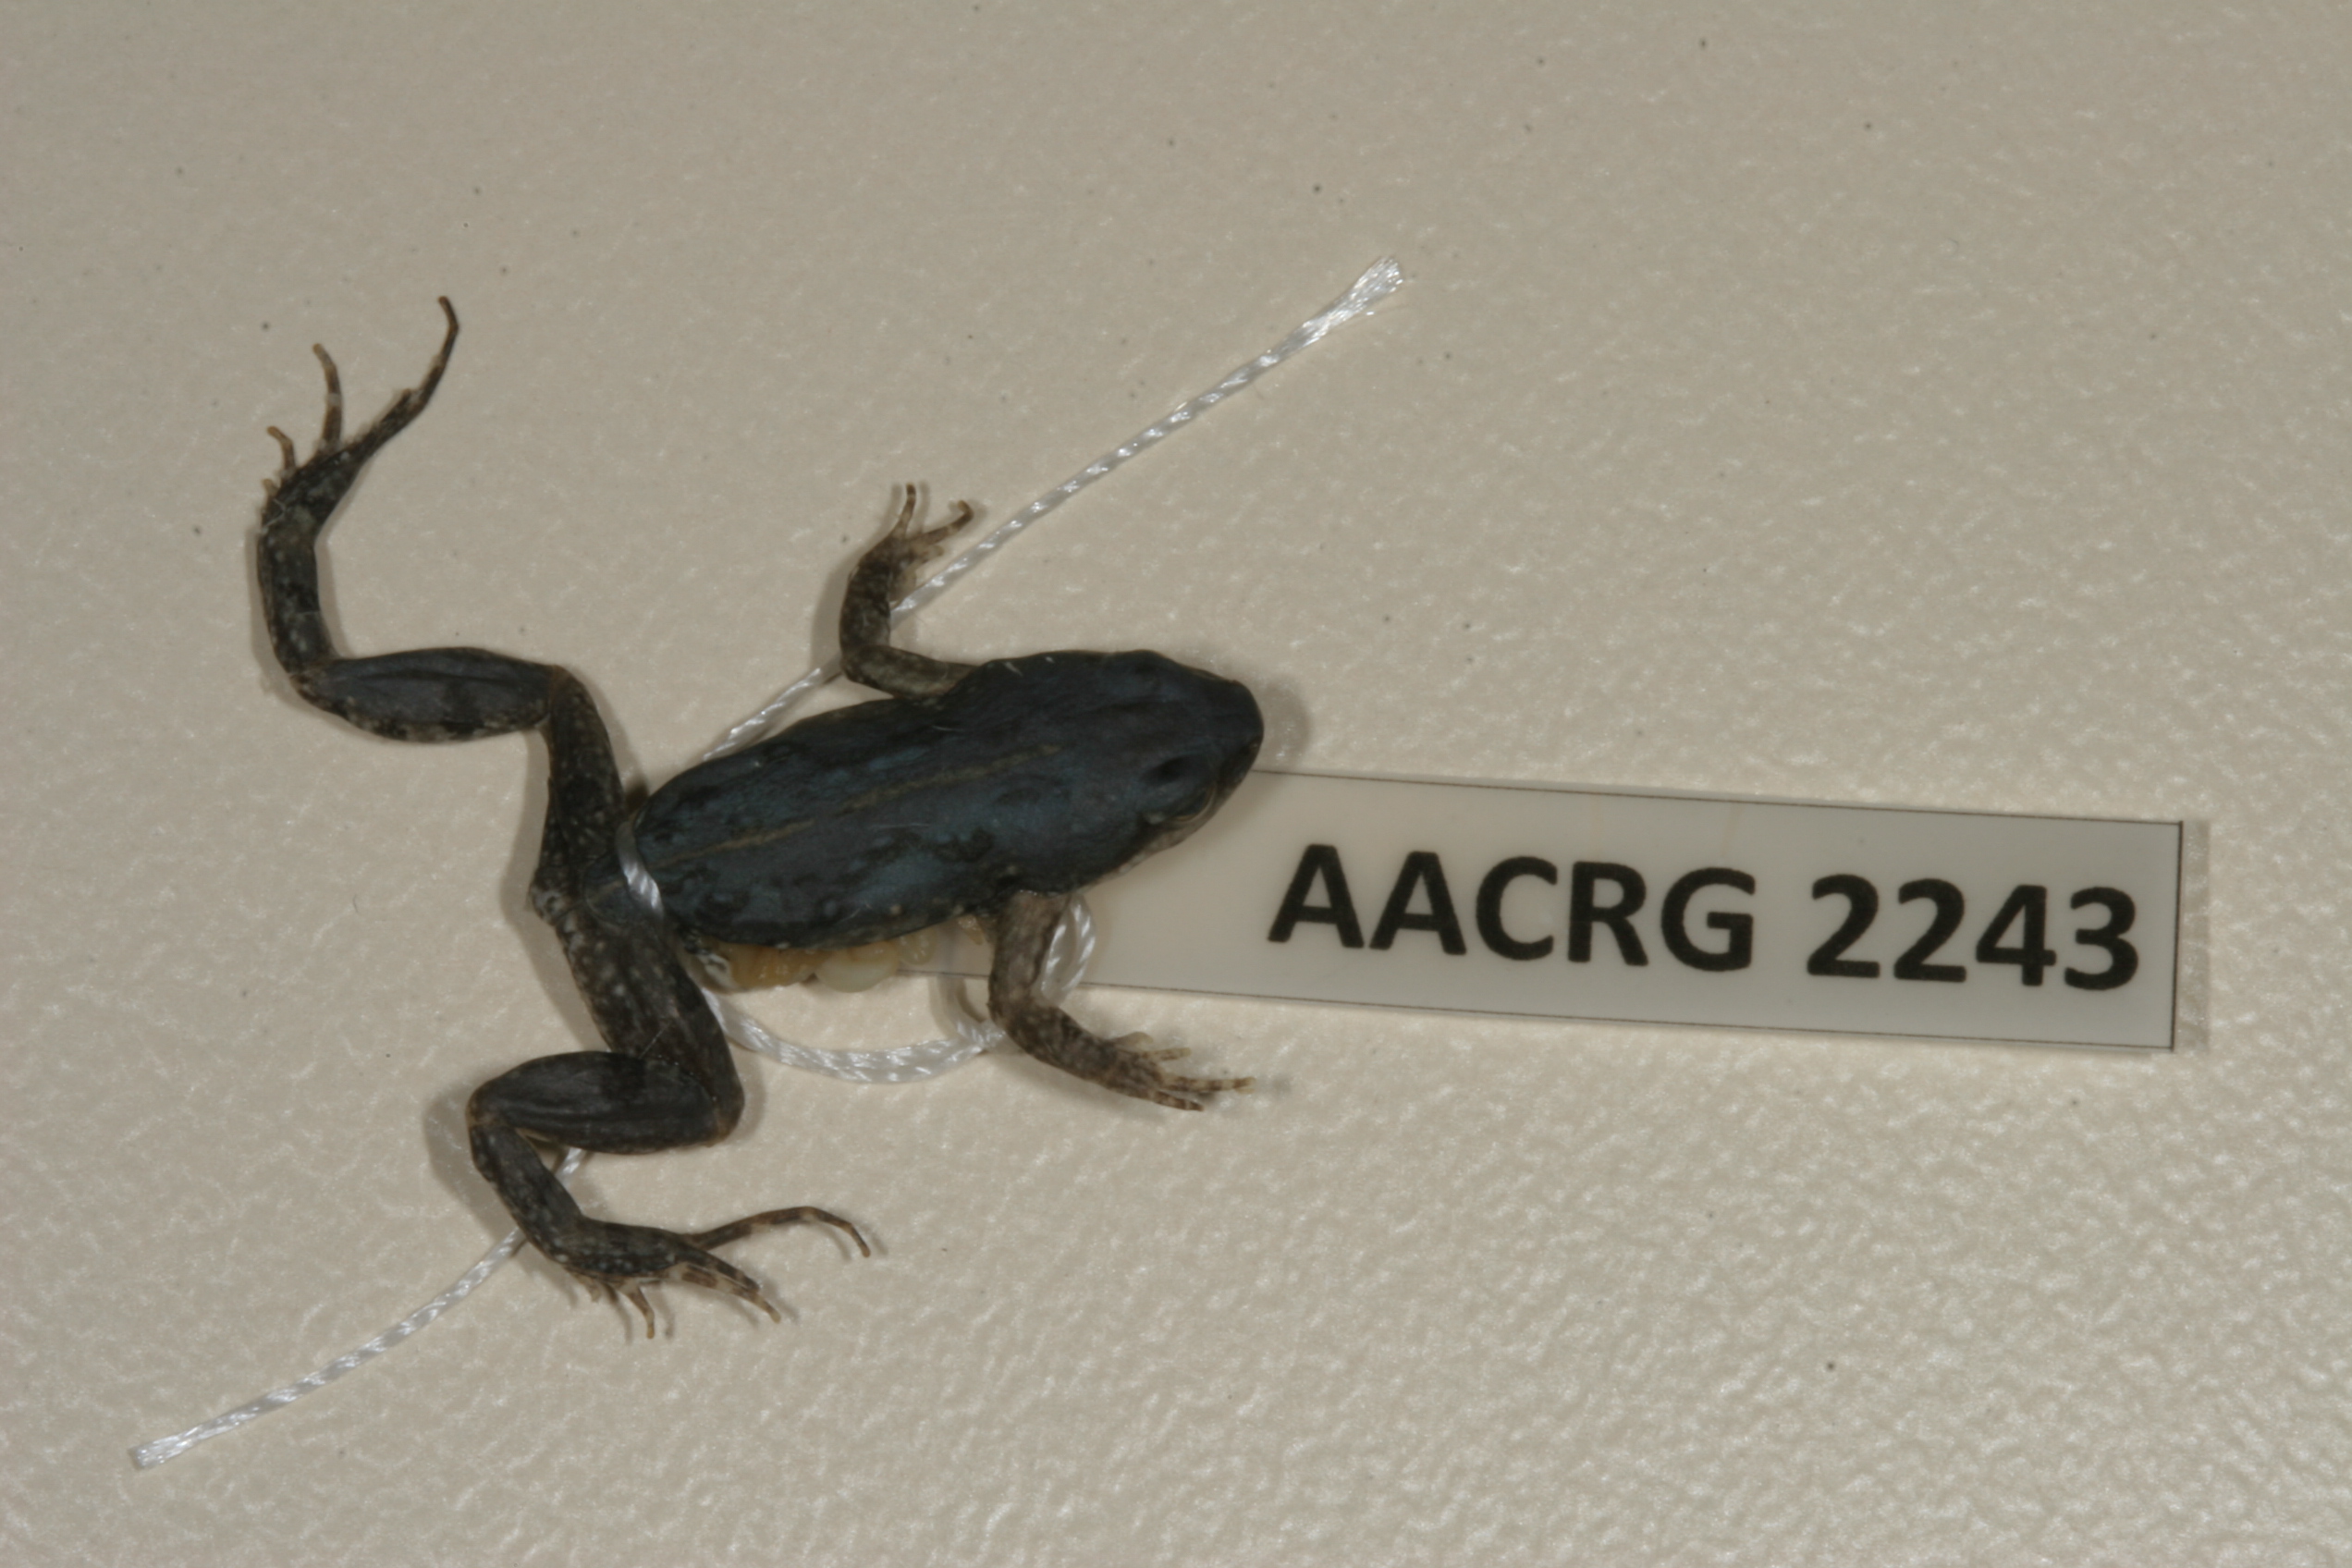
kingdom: Animalia
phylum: Chordata
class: Amphibia
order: Anura
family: Pyxicephalidae
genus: Cacosternum
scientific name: Cacosternum boettgeri
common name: Boettger's frog
